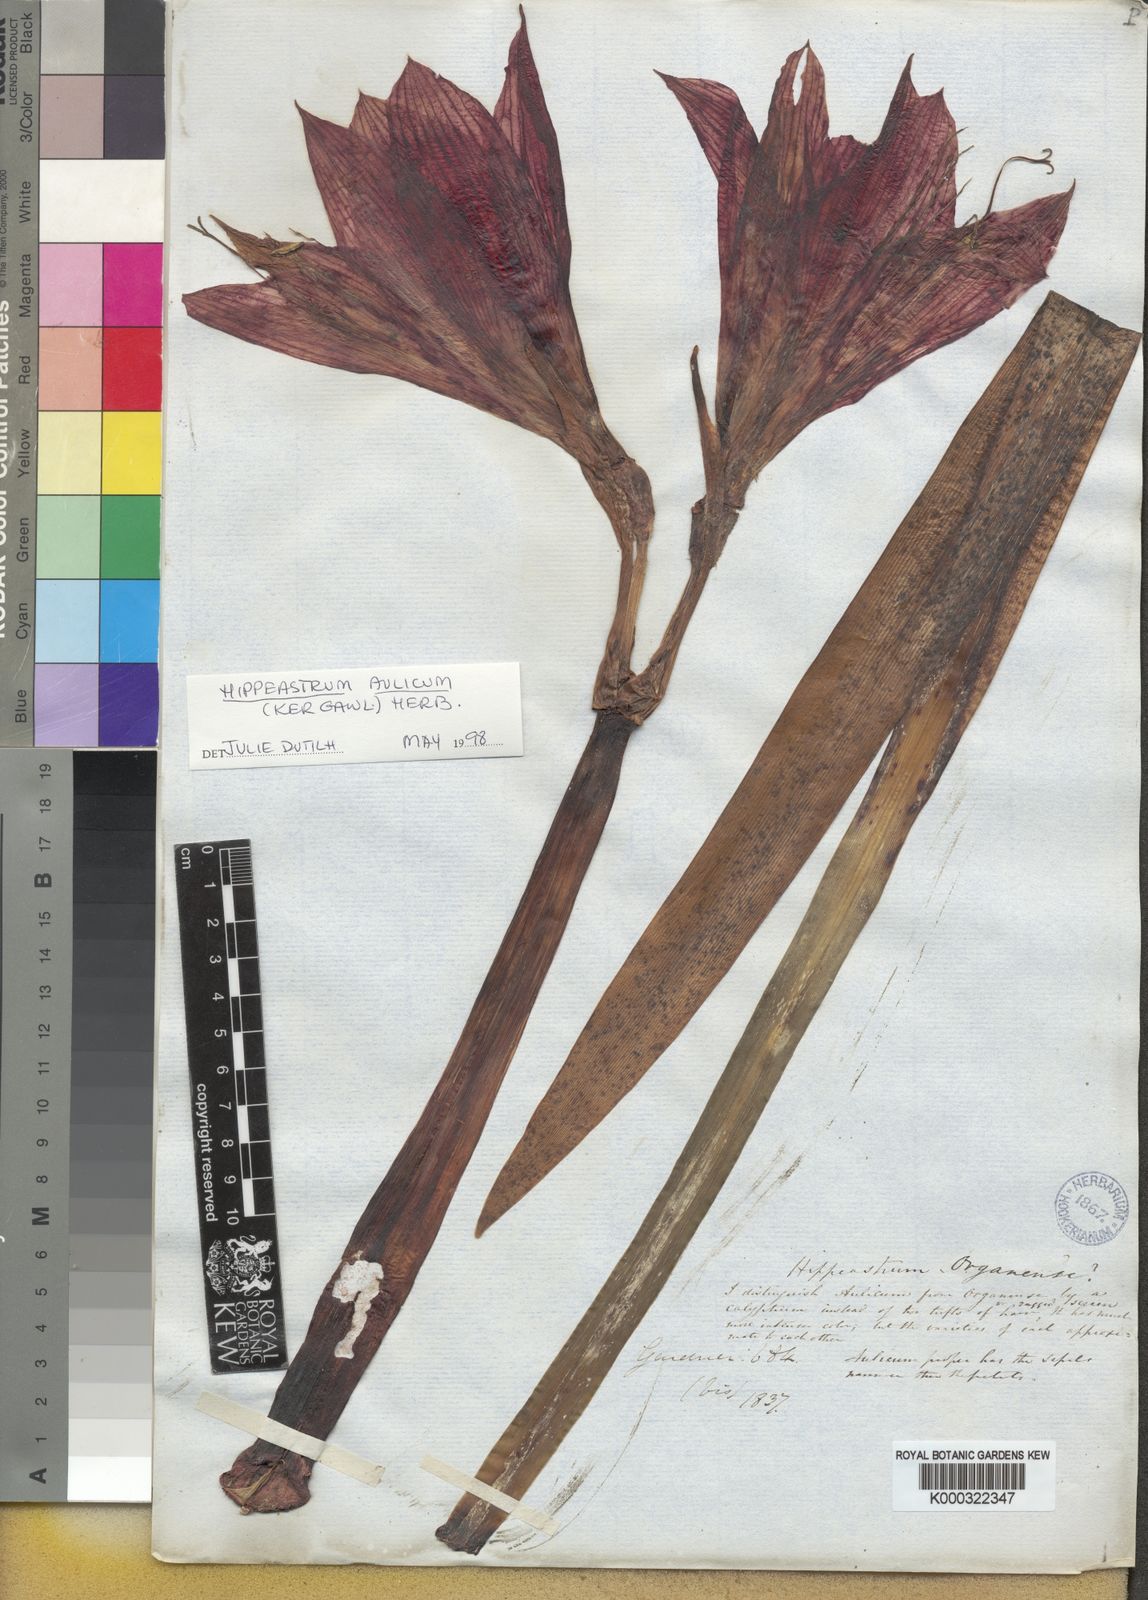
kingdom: Plantae
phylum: Tracheophyta
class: Liliopsida
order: Asparagales
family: Amaryllidaceae
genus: Hippeastrum
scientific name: Hippeastrum aulicum
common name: Lily-of-the-palace
